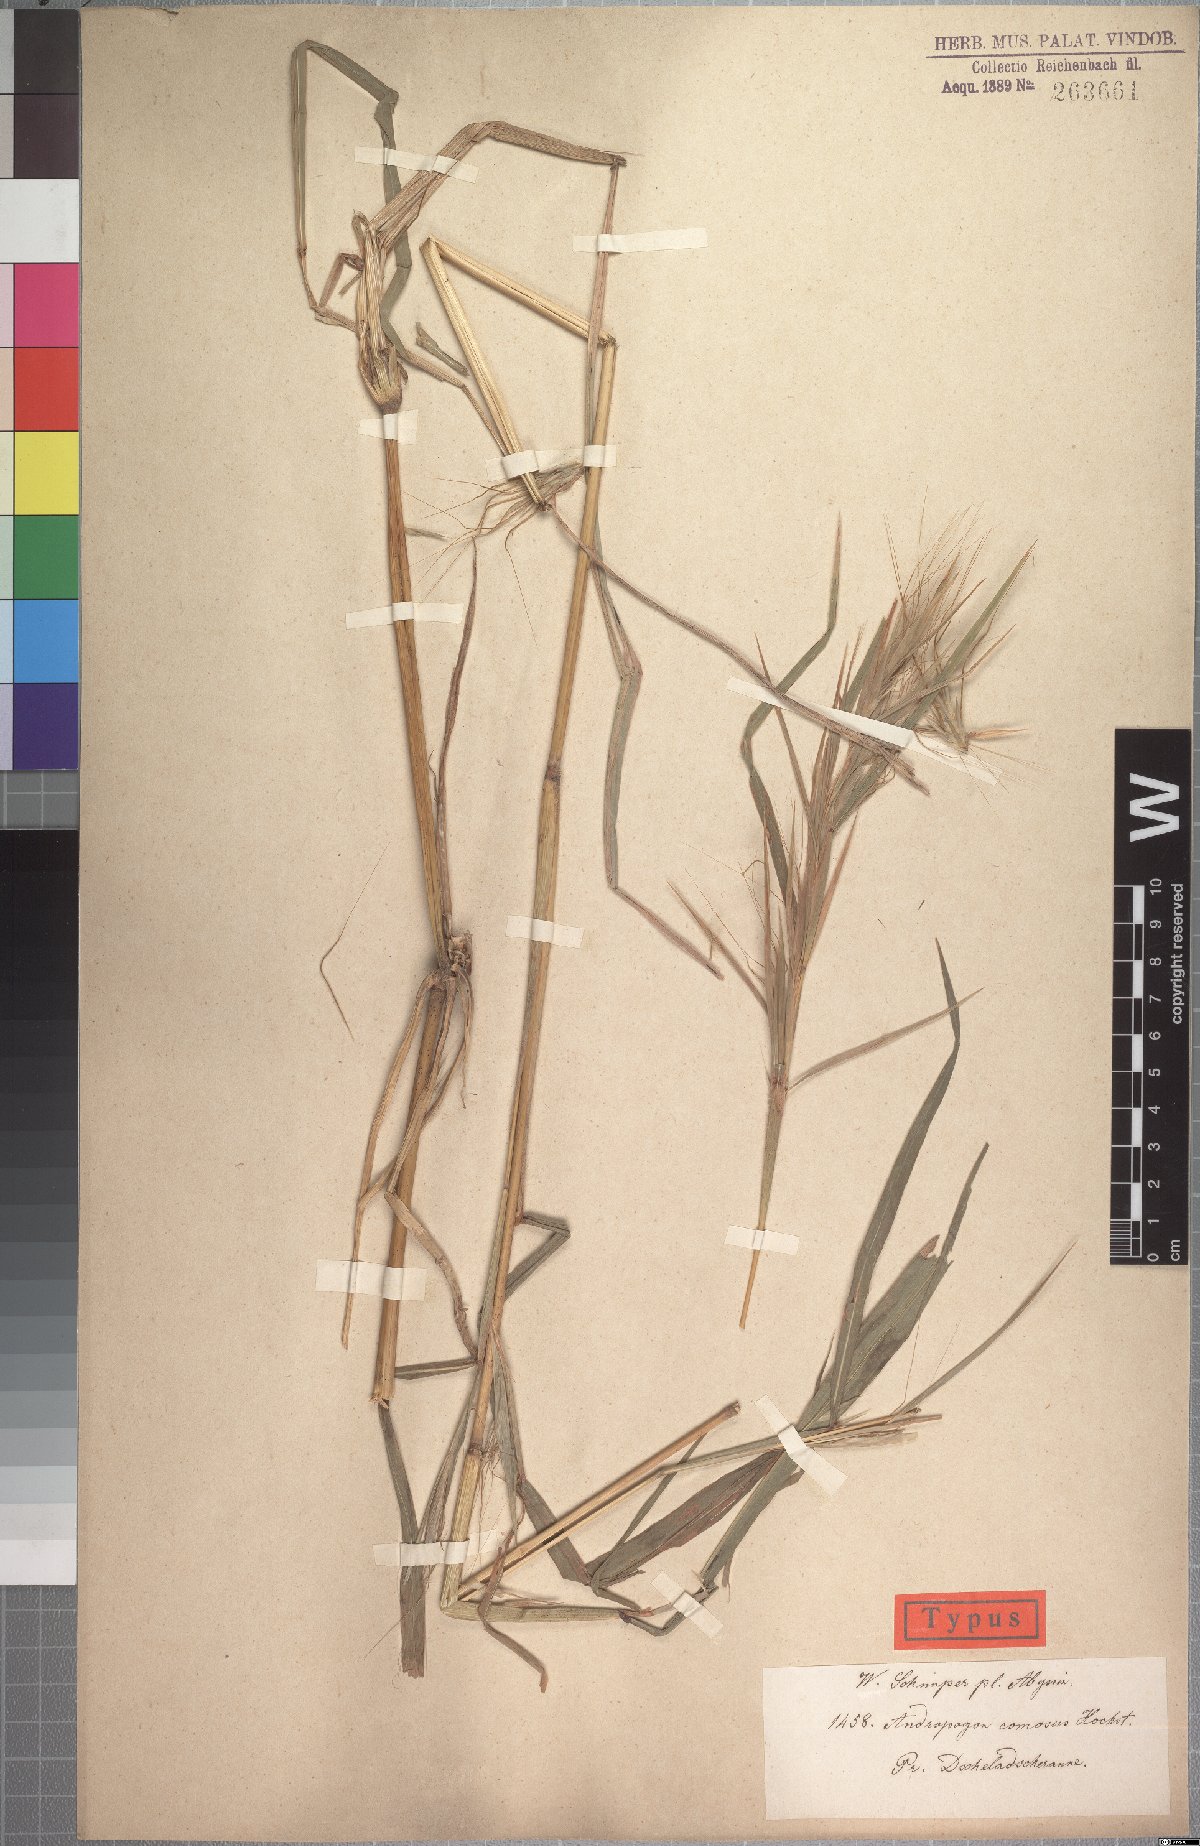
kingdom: Plantae
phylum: Tracheophyta
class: Liliopsida
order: Poales
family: Poaceae
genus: Hyparrhenia
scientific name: Hyparrhenia coleotricha
